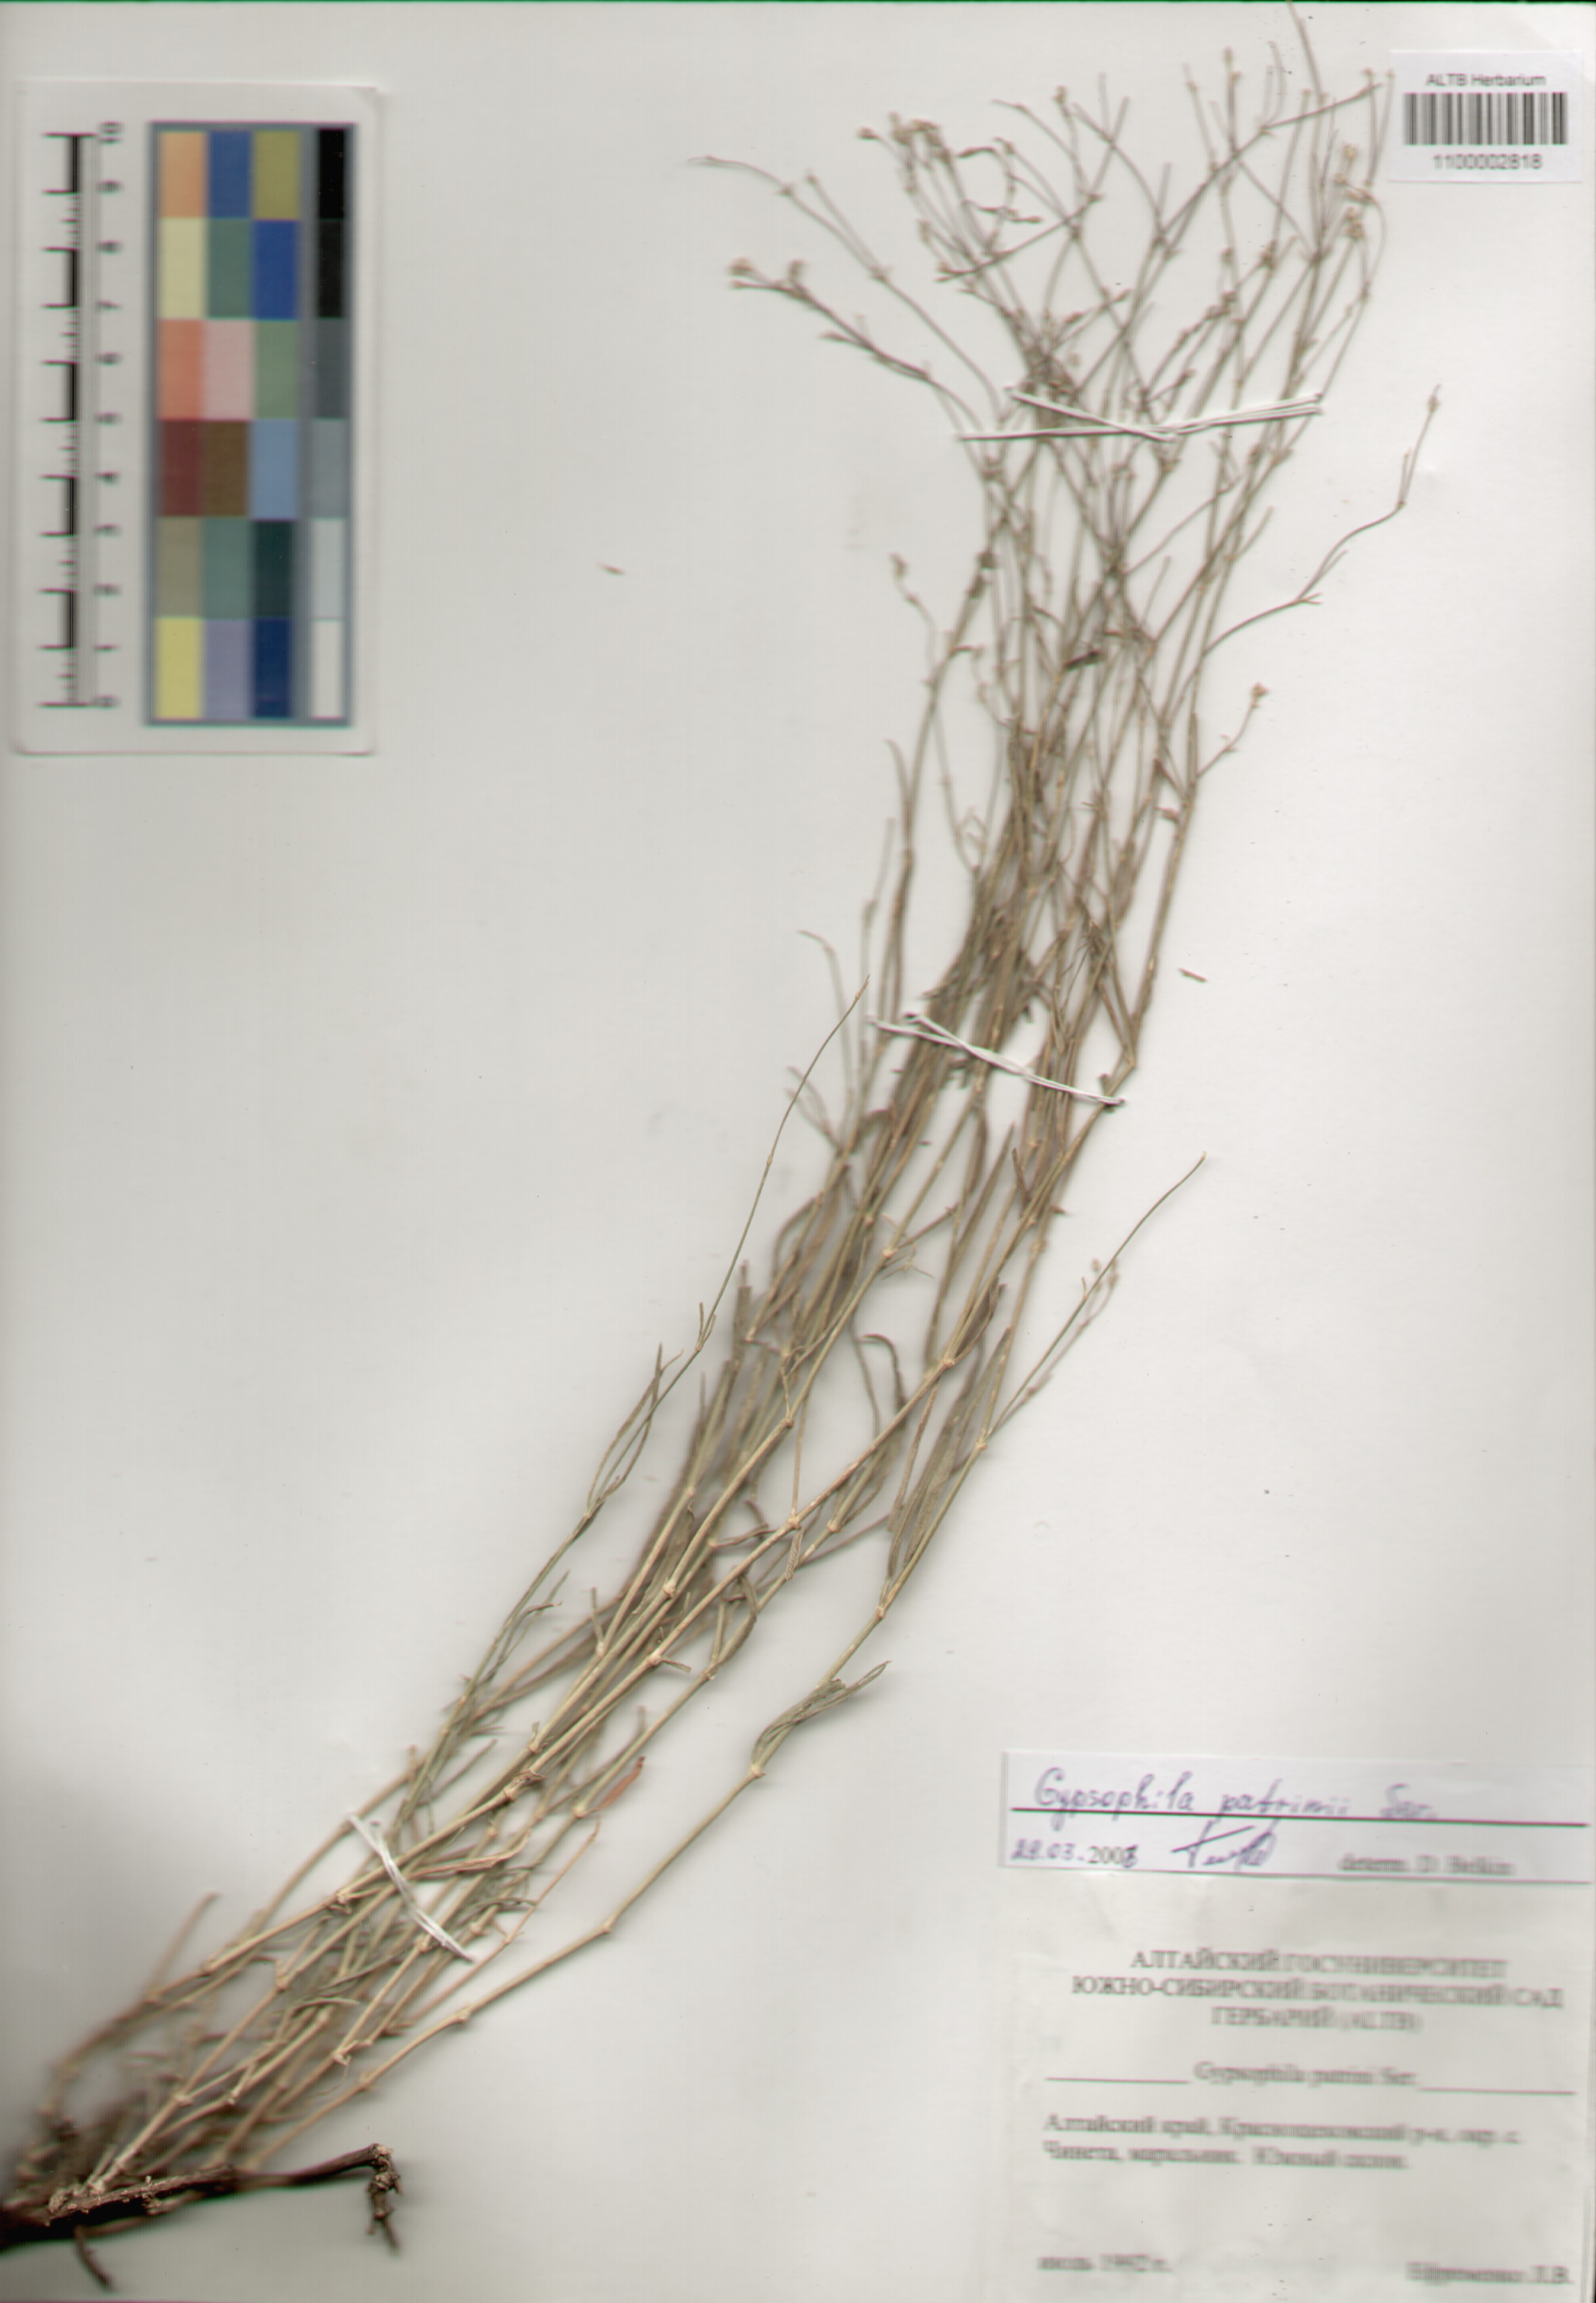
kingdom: Plantae
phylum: Tracheophyta
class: Magnoliopsida
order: Caryophyllales
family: Caryophyllaceae
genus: Gypsophila
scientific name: Gypsophila patrinii
